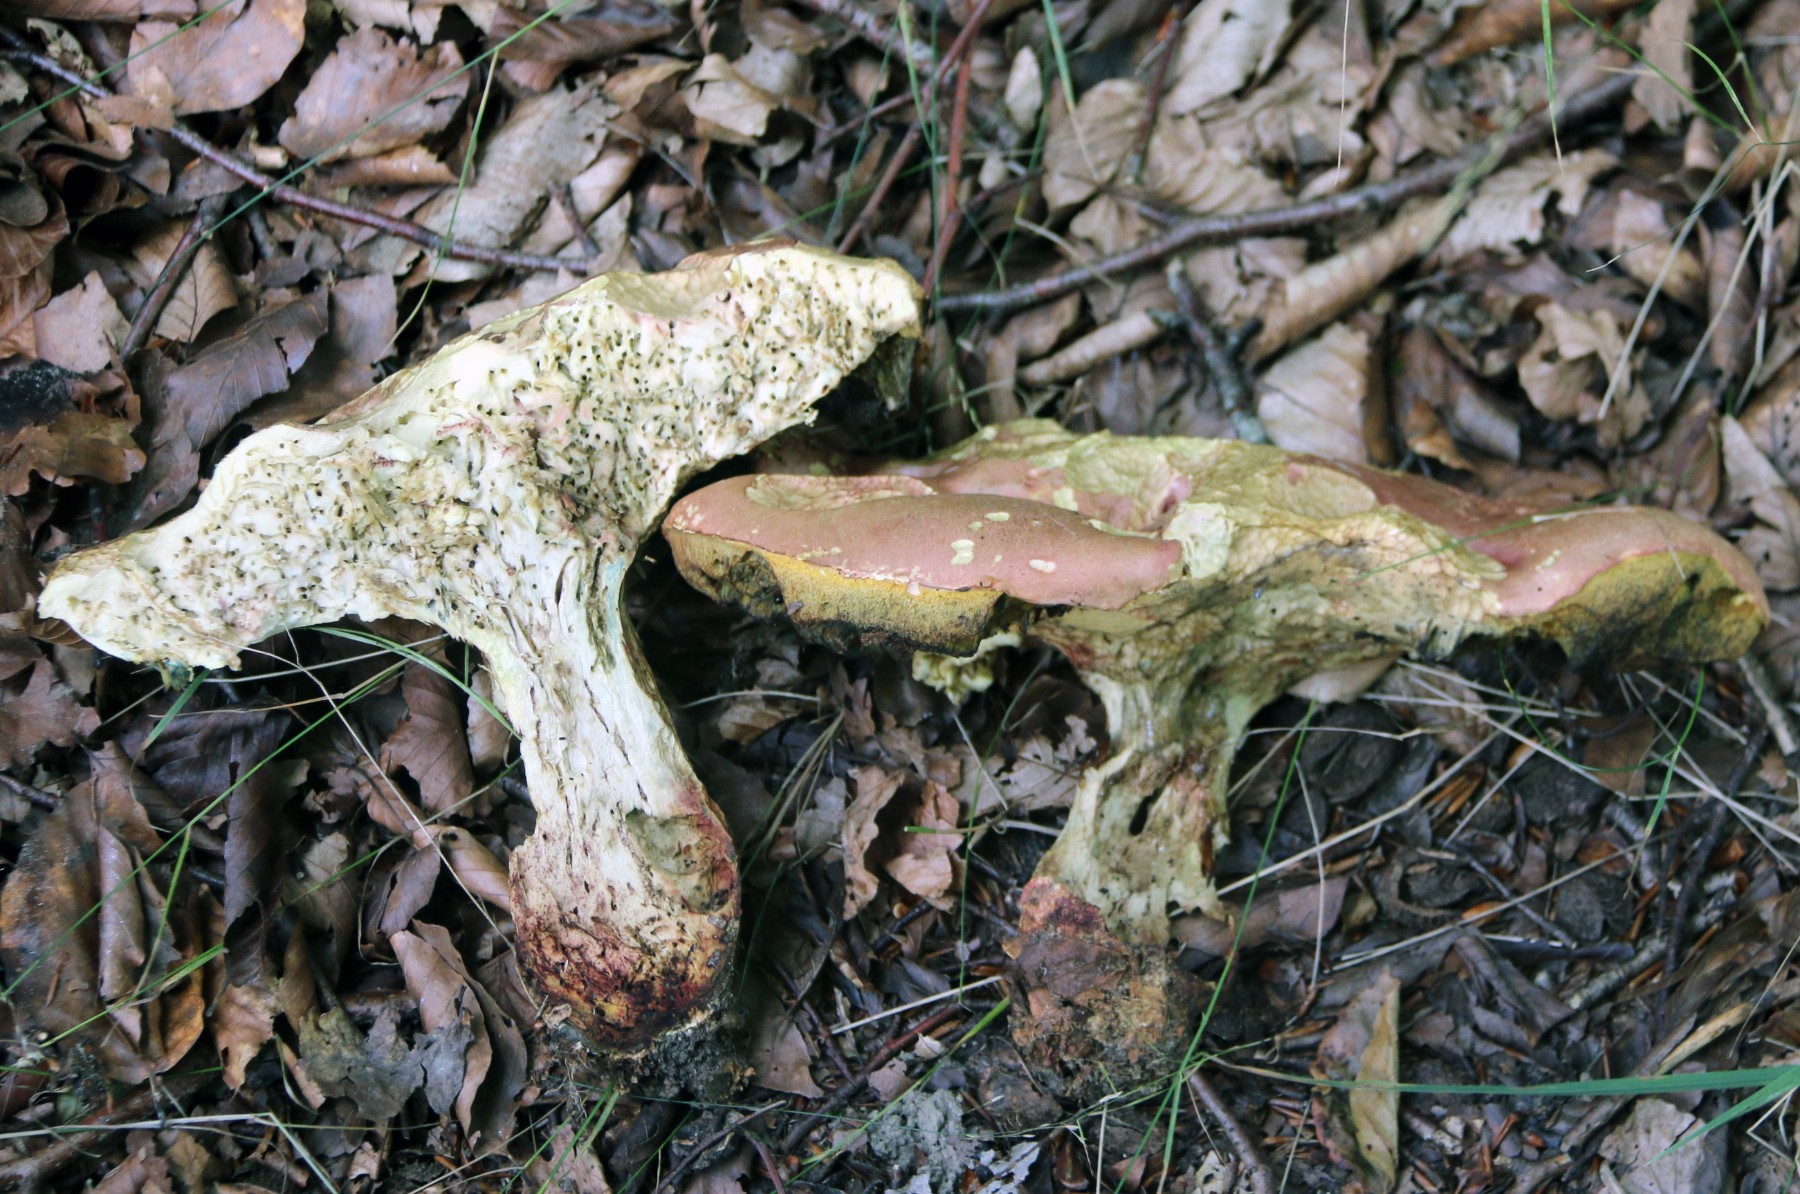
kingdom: Fungi
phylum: Basidiomycota
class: Agaricomycetes
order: Boletales
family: Boletaceae
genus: Rubroboletus
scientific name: Rubroboletus legaliae
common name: djævle-rørhat
